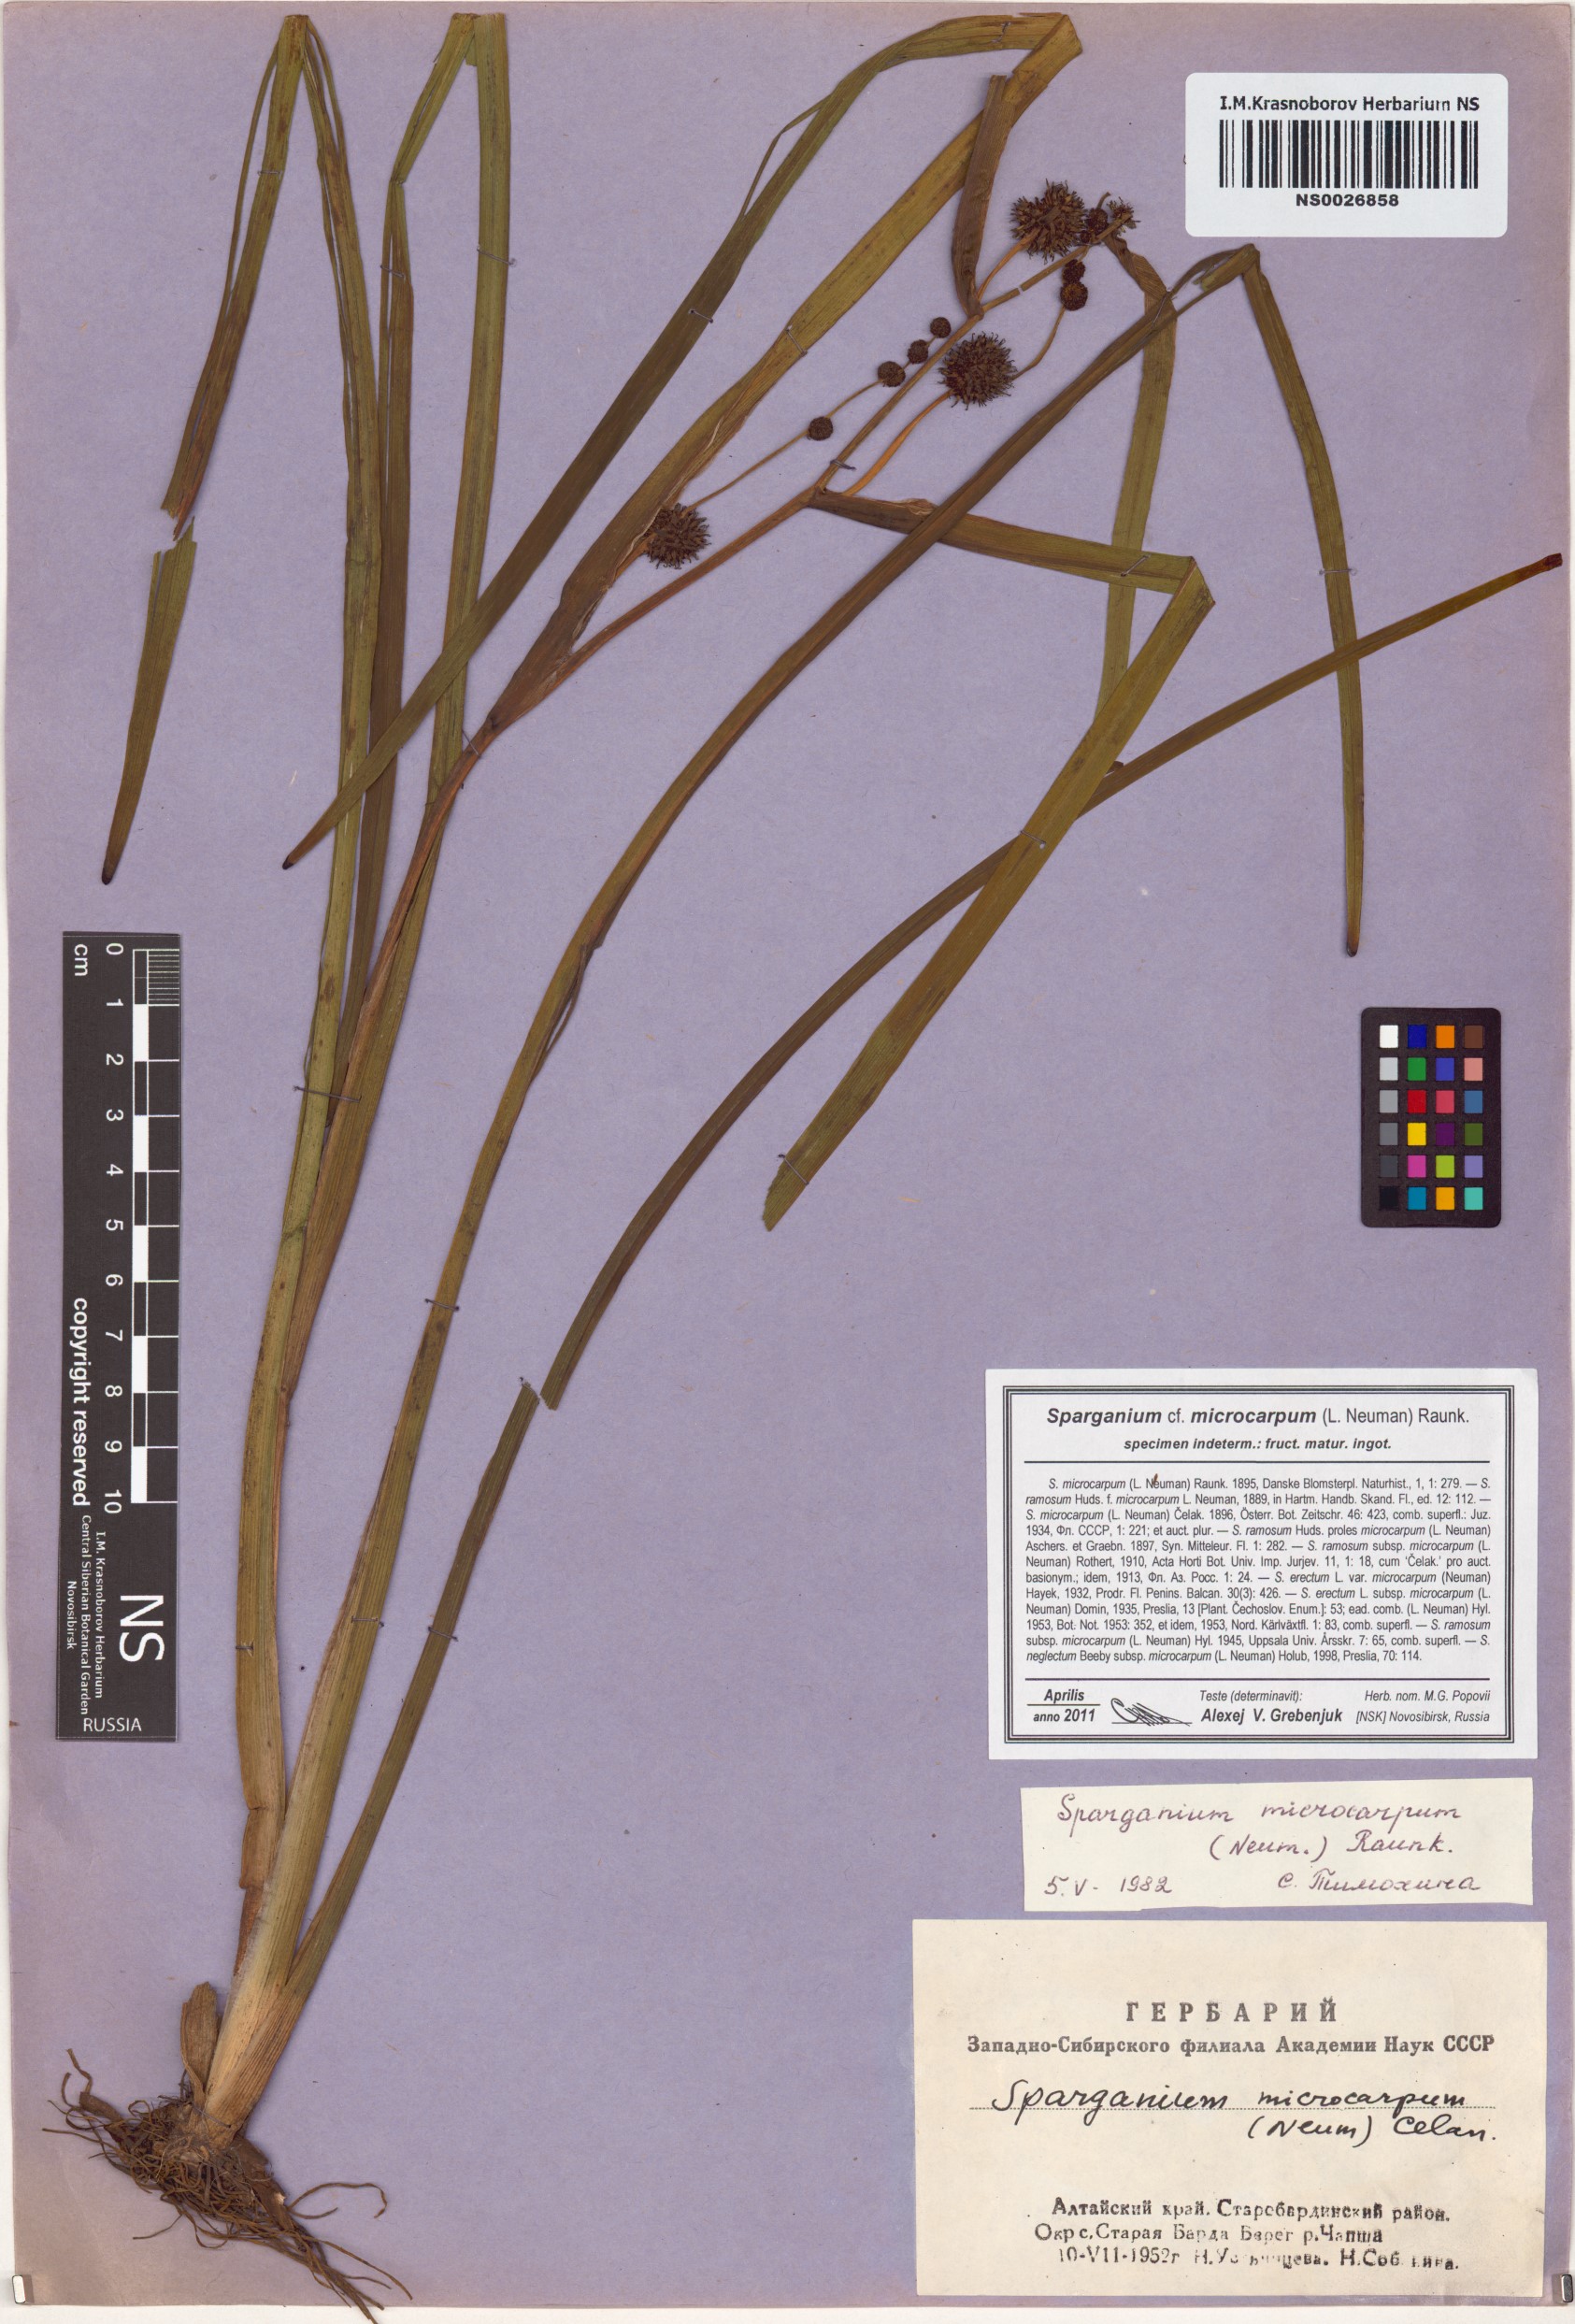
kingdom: Plantae
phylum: Tracheophyta
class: Liliopsida
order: Poales
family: Typhaceae
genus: Sparganium
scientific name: Sparganium erectum
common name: Branched bur-reed
